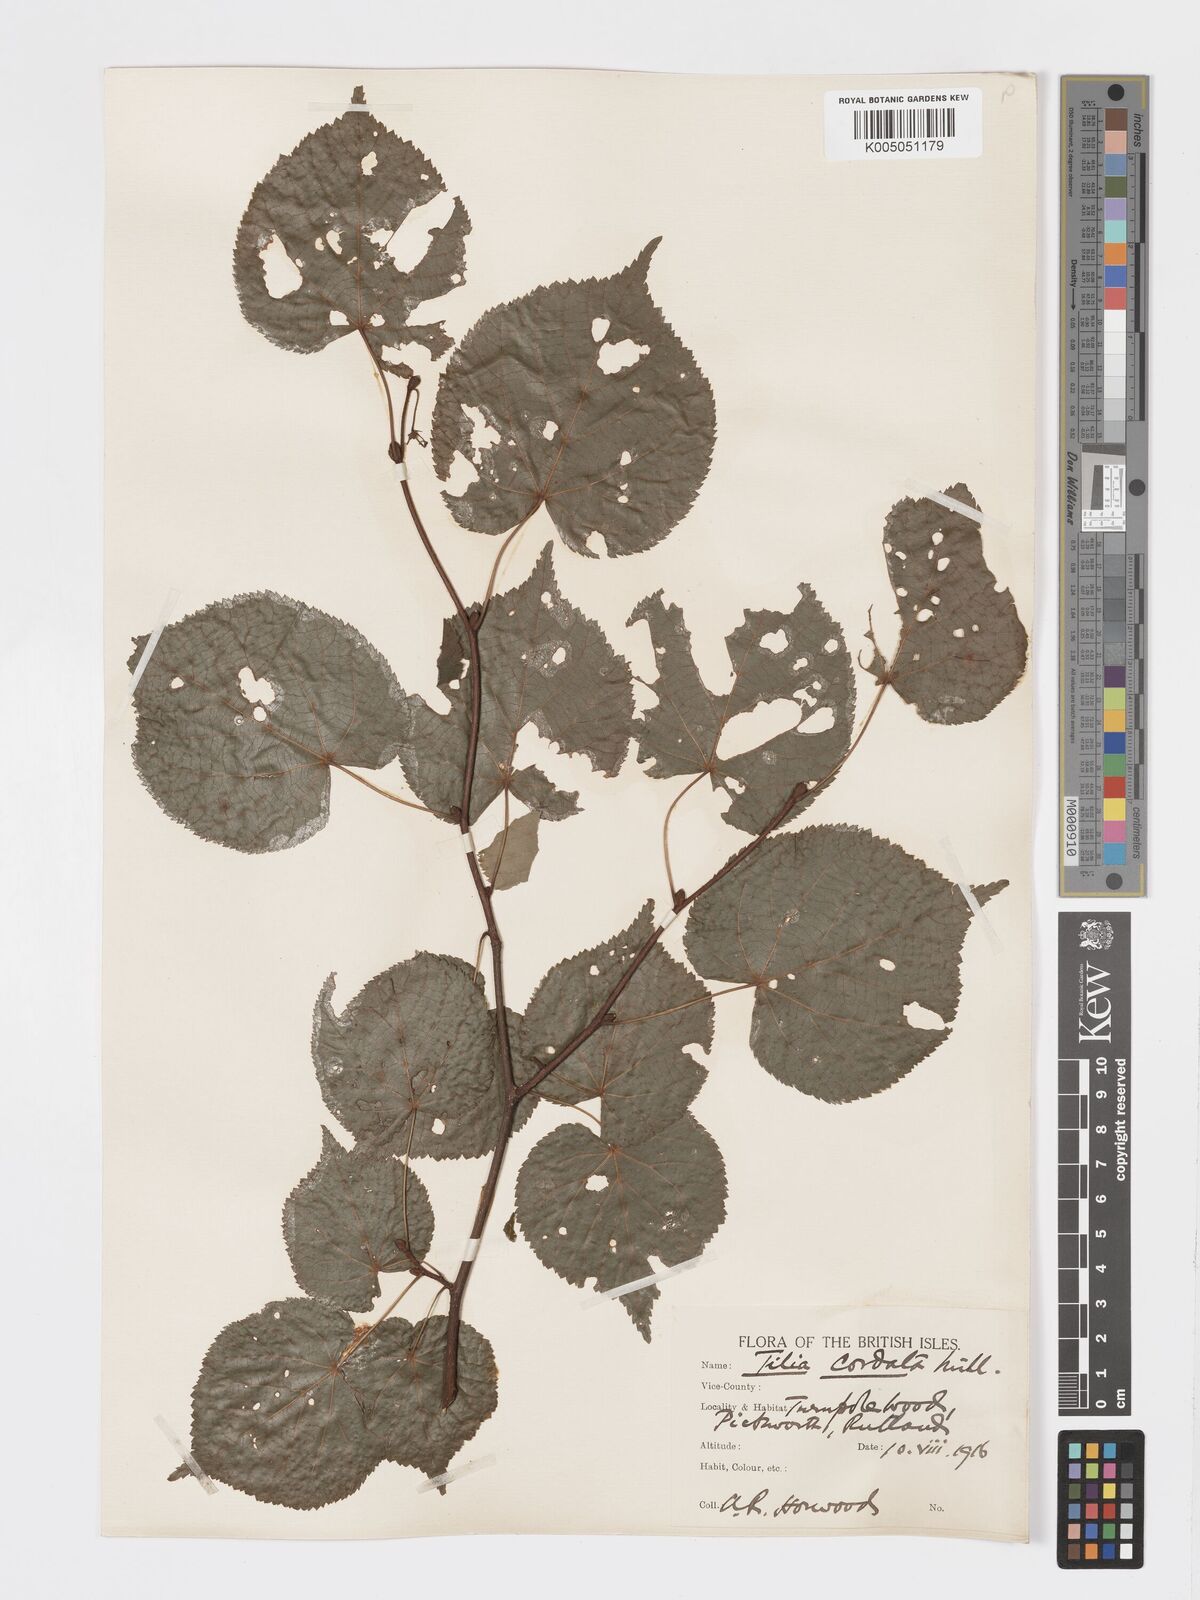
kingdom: Plantae
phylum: Tracheophyta
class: Magnoliopsida
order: Malvales
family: Malvaceae
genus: Tilia
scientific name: Tilia cordata
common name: Small-leaved lime
